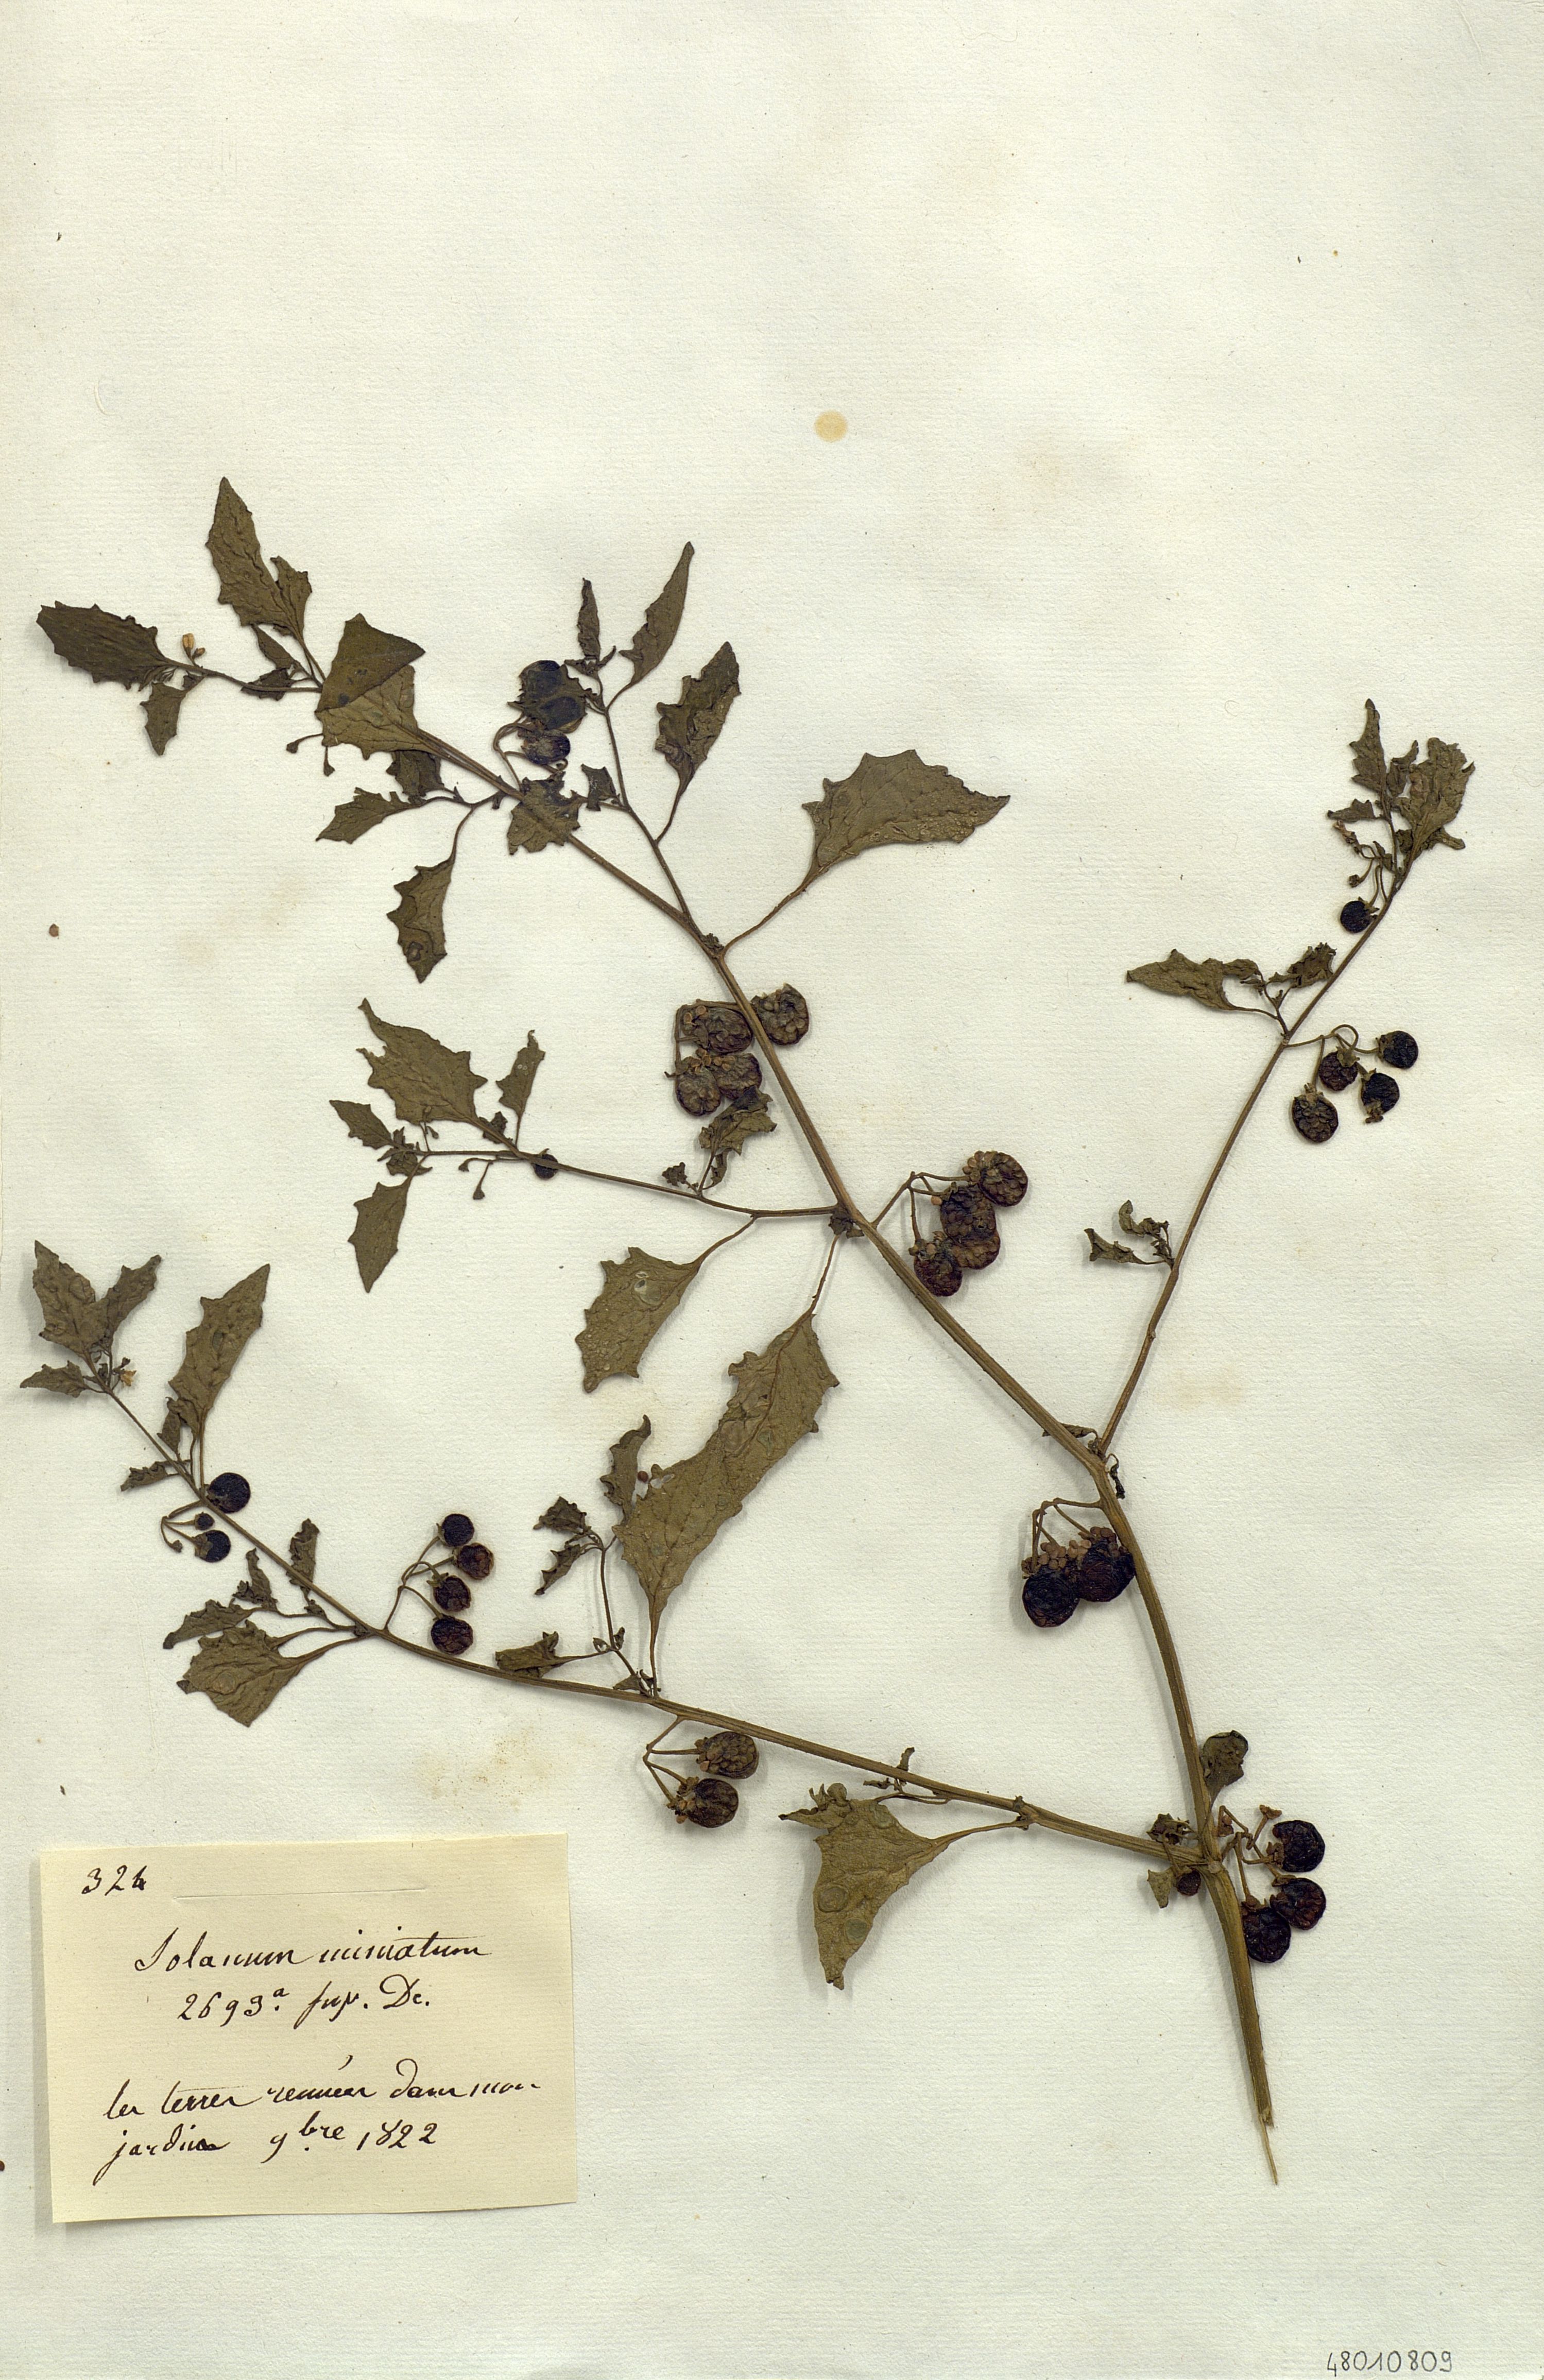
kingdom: Plantae
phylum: Tracheophyta
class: Magnoliopsida
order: Solanales
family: Solanaceae
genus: Solanum
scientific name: Solanum villosum
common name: Red nightshade
